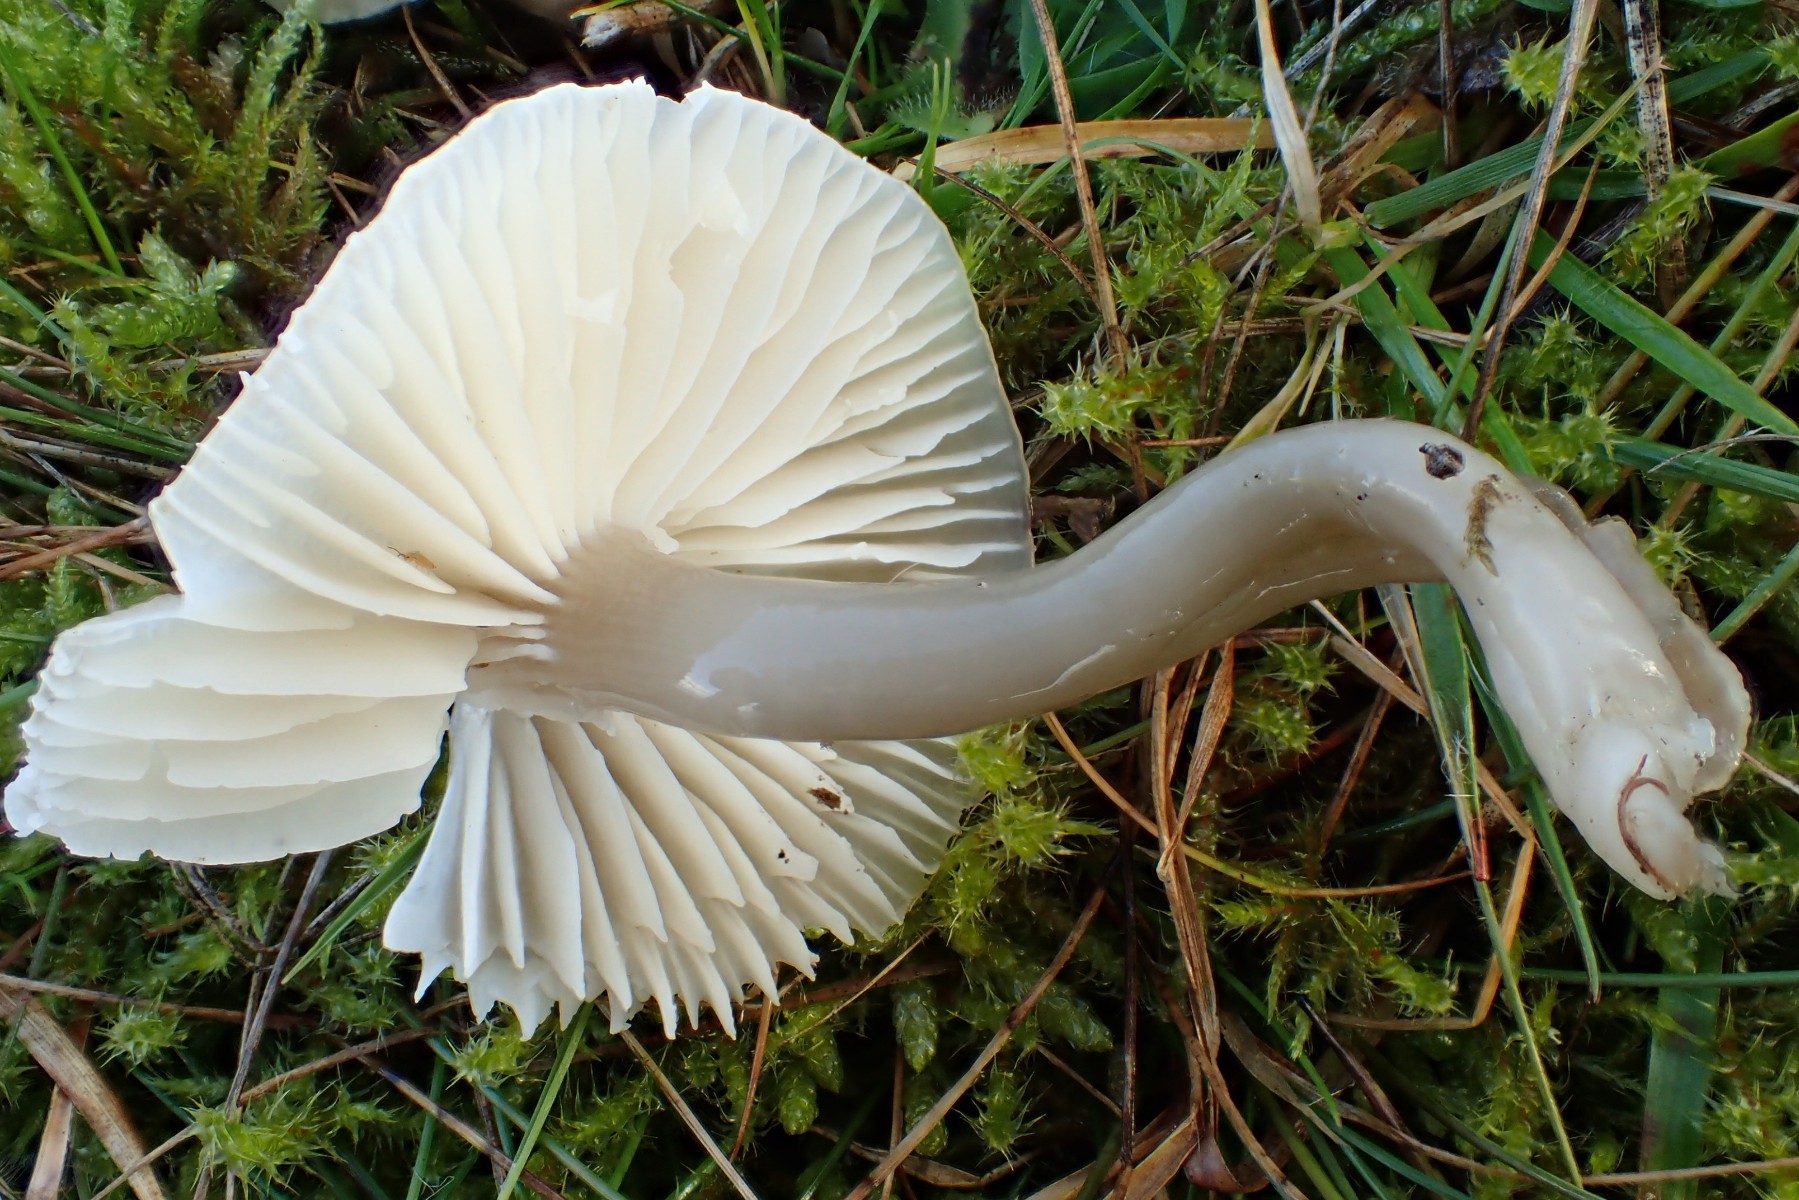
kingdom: Fungi
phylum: Basidiomycota
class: Agaricomycetes
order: Agaricales
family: Hygrophoraceae
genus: Gliophorus
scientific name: Gliophorus irrigatus
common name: slimet vokshat
